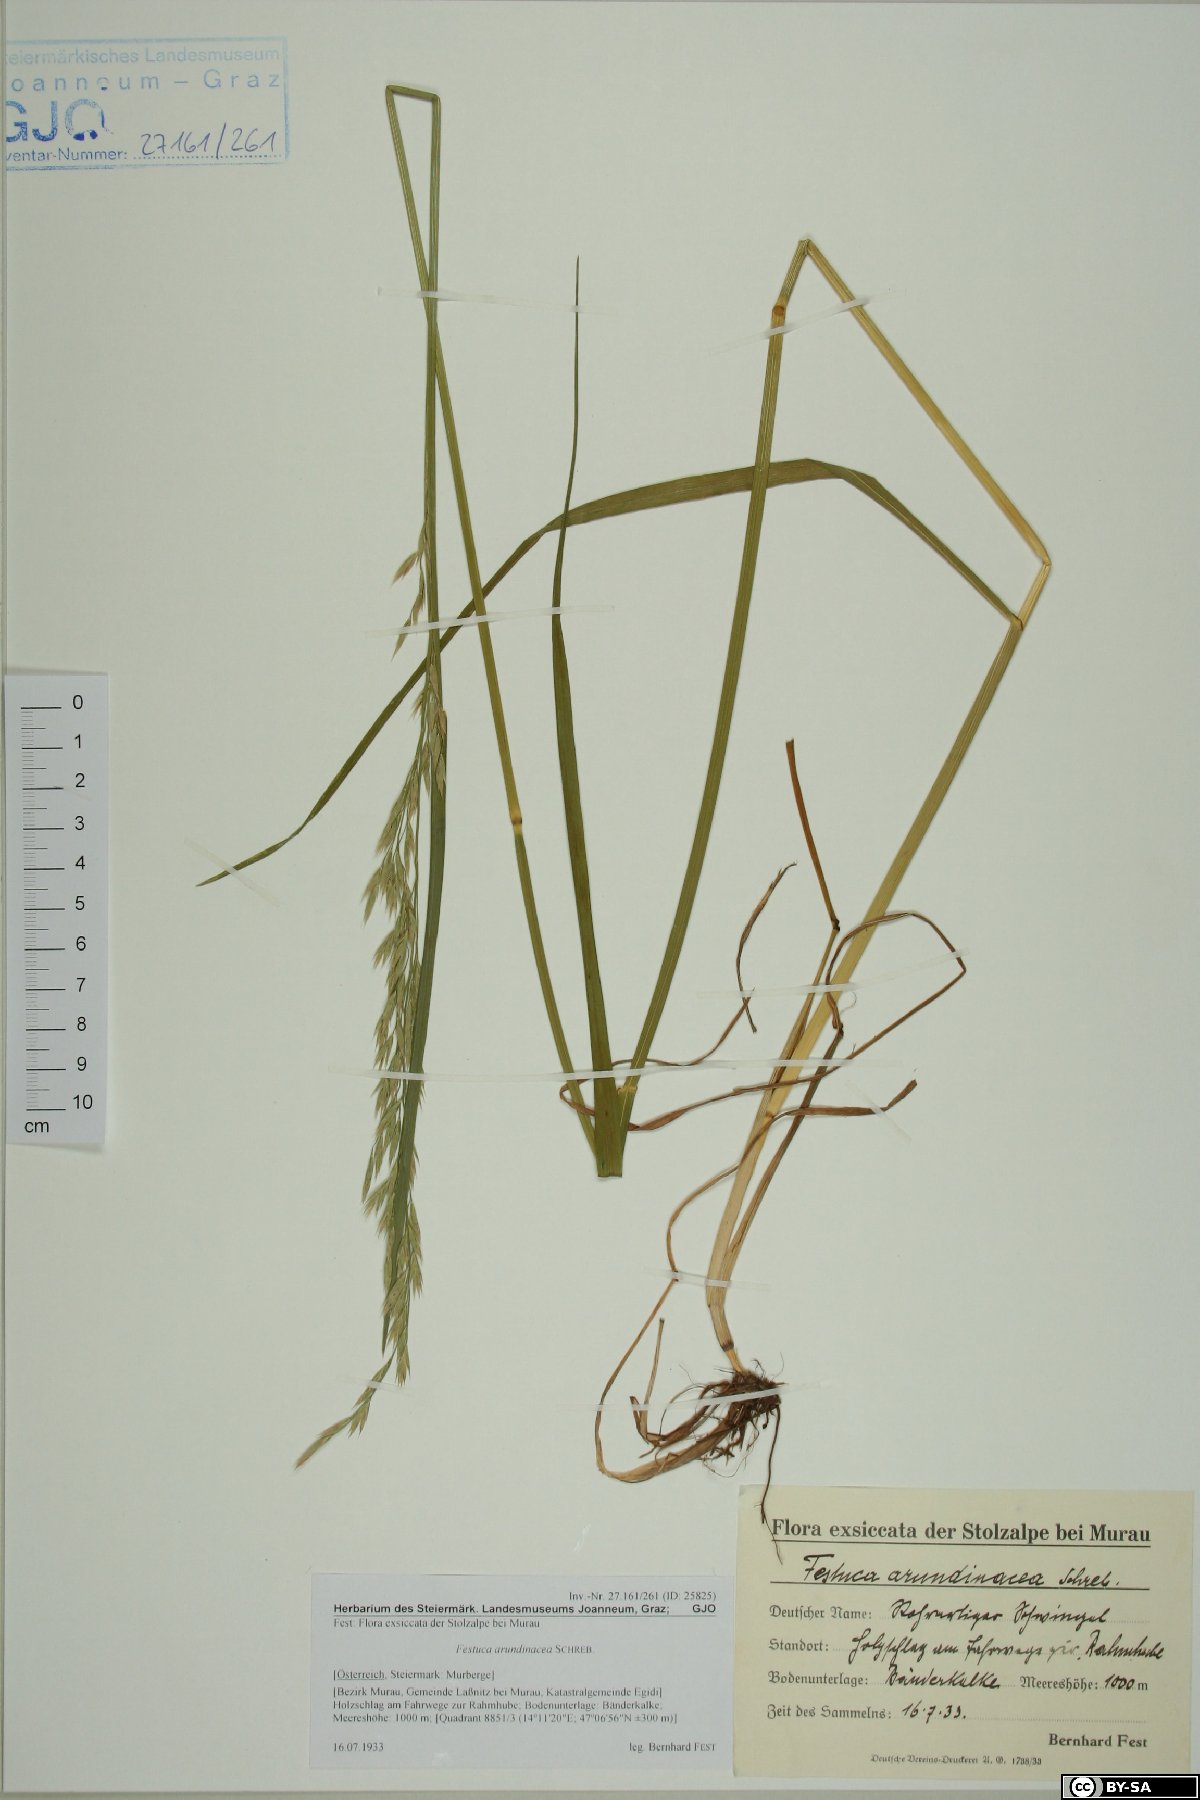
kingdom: Plantae
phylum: Tracheophyta
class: Liliopsida
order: Poales
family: Poaceae
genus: Lolium
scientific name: Lolium arundinaceum
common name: Reed fescue
